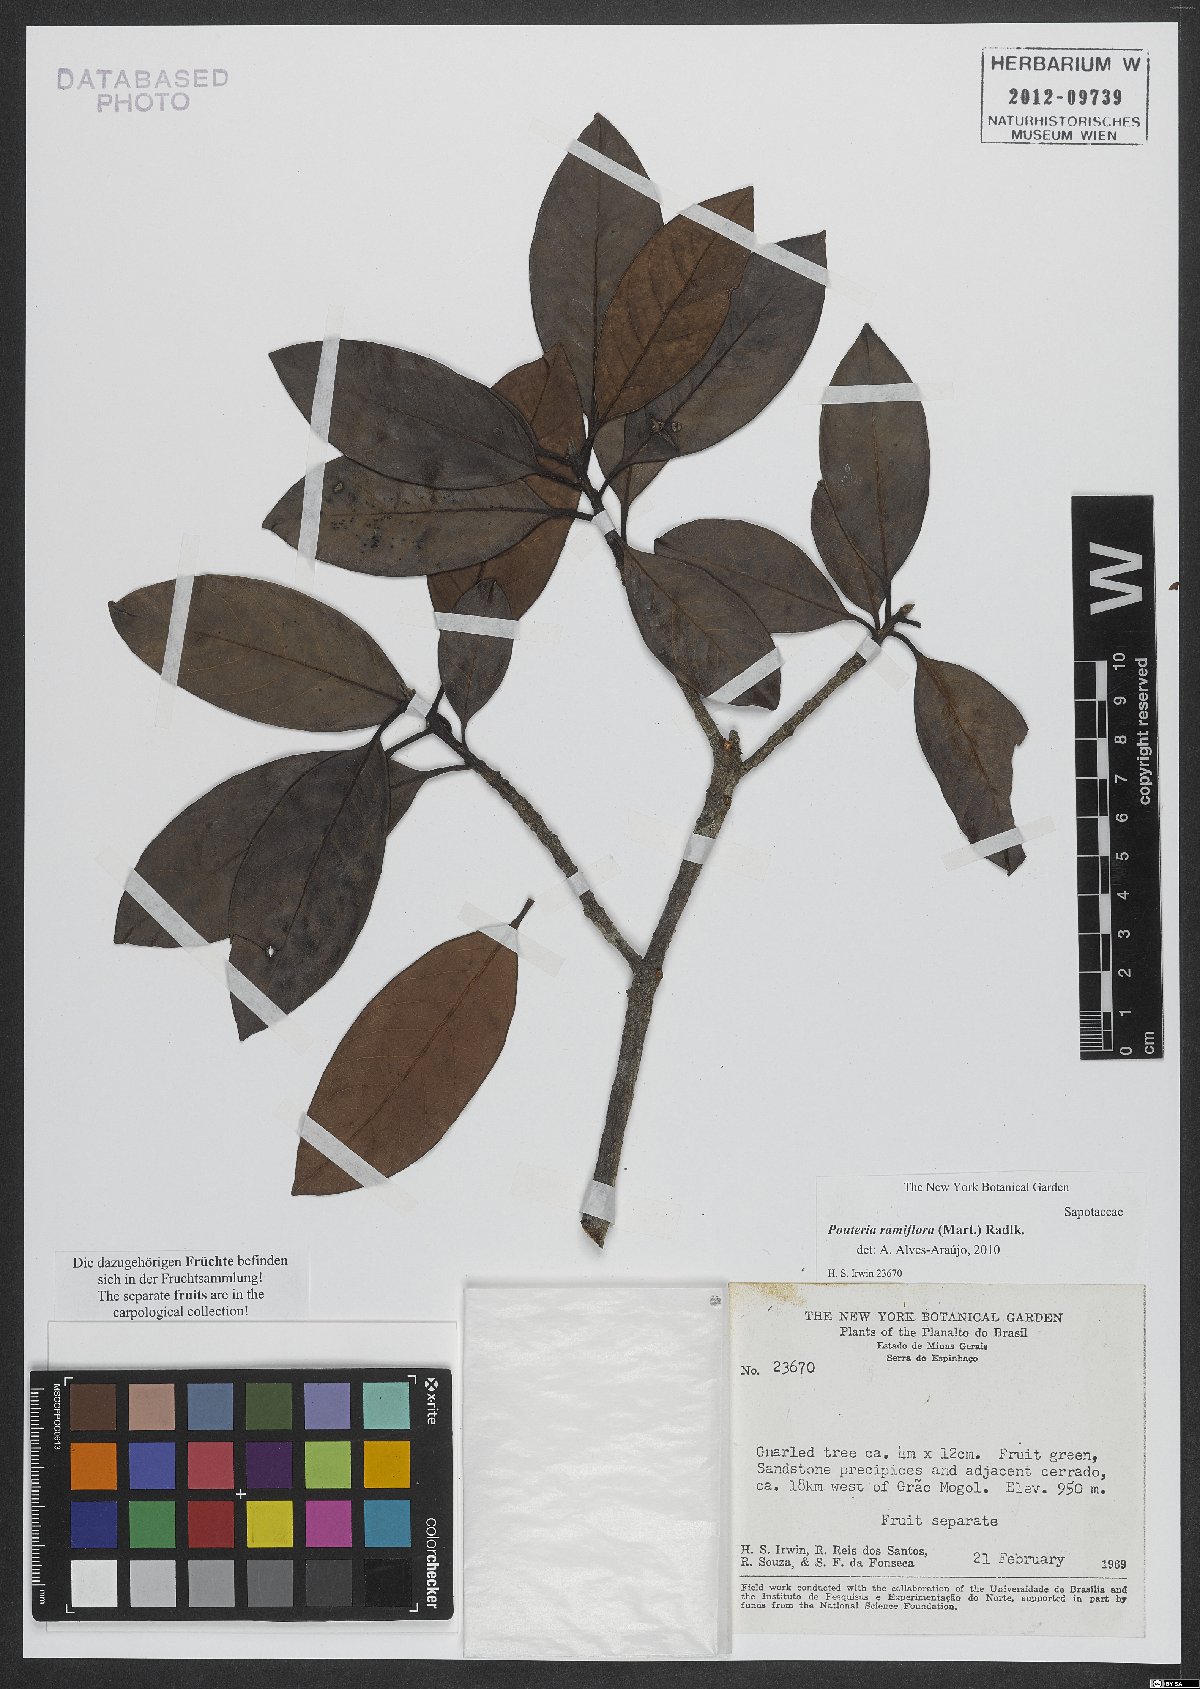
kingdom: Plantae
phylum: Tracheophyta
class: Magnoliopsida
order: Ericales
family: Sapotaceae
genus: Pouteria
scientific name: Pouteria ramiflora
